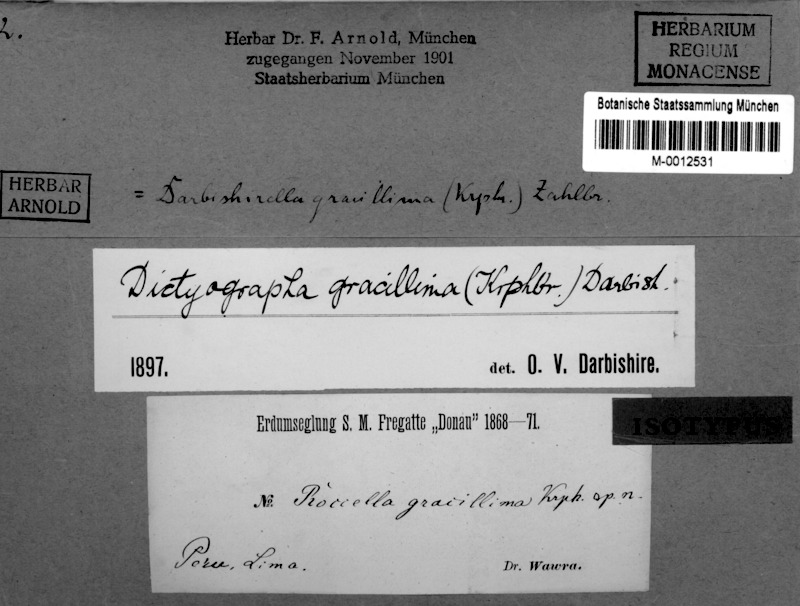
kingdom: Fungi
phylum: Ascomycota
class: Arthoniomycetes
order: Arthoniales
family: Opegraphaceae
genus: Pentagenella
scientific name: Pentagenella gracillima
